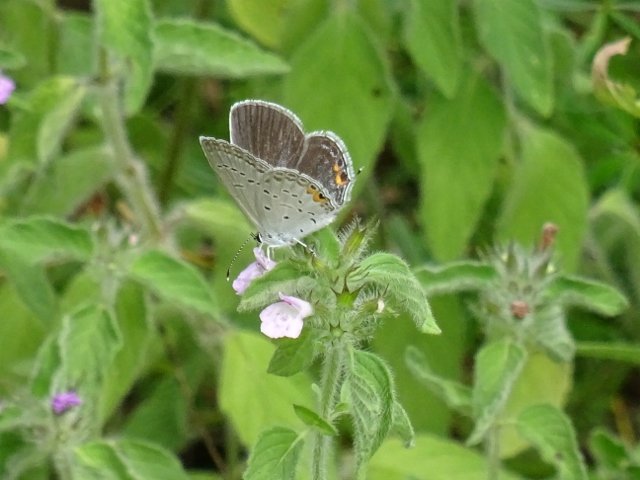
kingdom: Animalia
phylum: Arthropoda
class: Insecta
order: Lepidoptera
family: Lycaenidae
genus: Elkalyce
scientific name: Elkalyce comyntas
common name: Eastern Tailed-Blue
